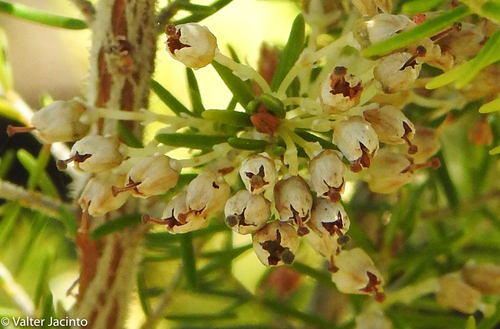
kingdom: Plantae
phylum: Tracheophyta
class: Magnoliopsida
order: Ericales
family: Ericaceae
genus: Erica
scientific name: Erica arborea
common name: Tree heath
